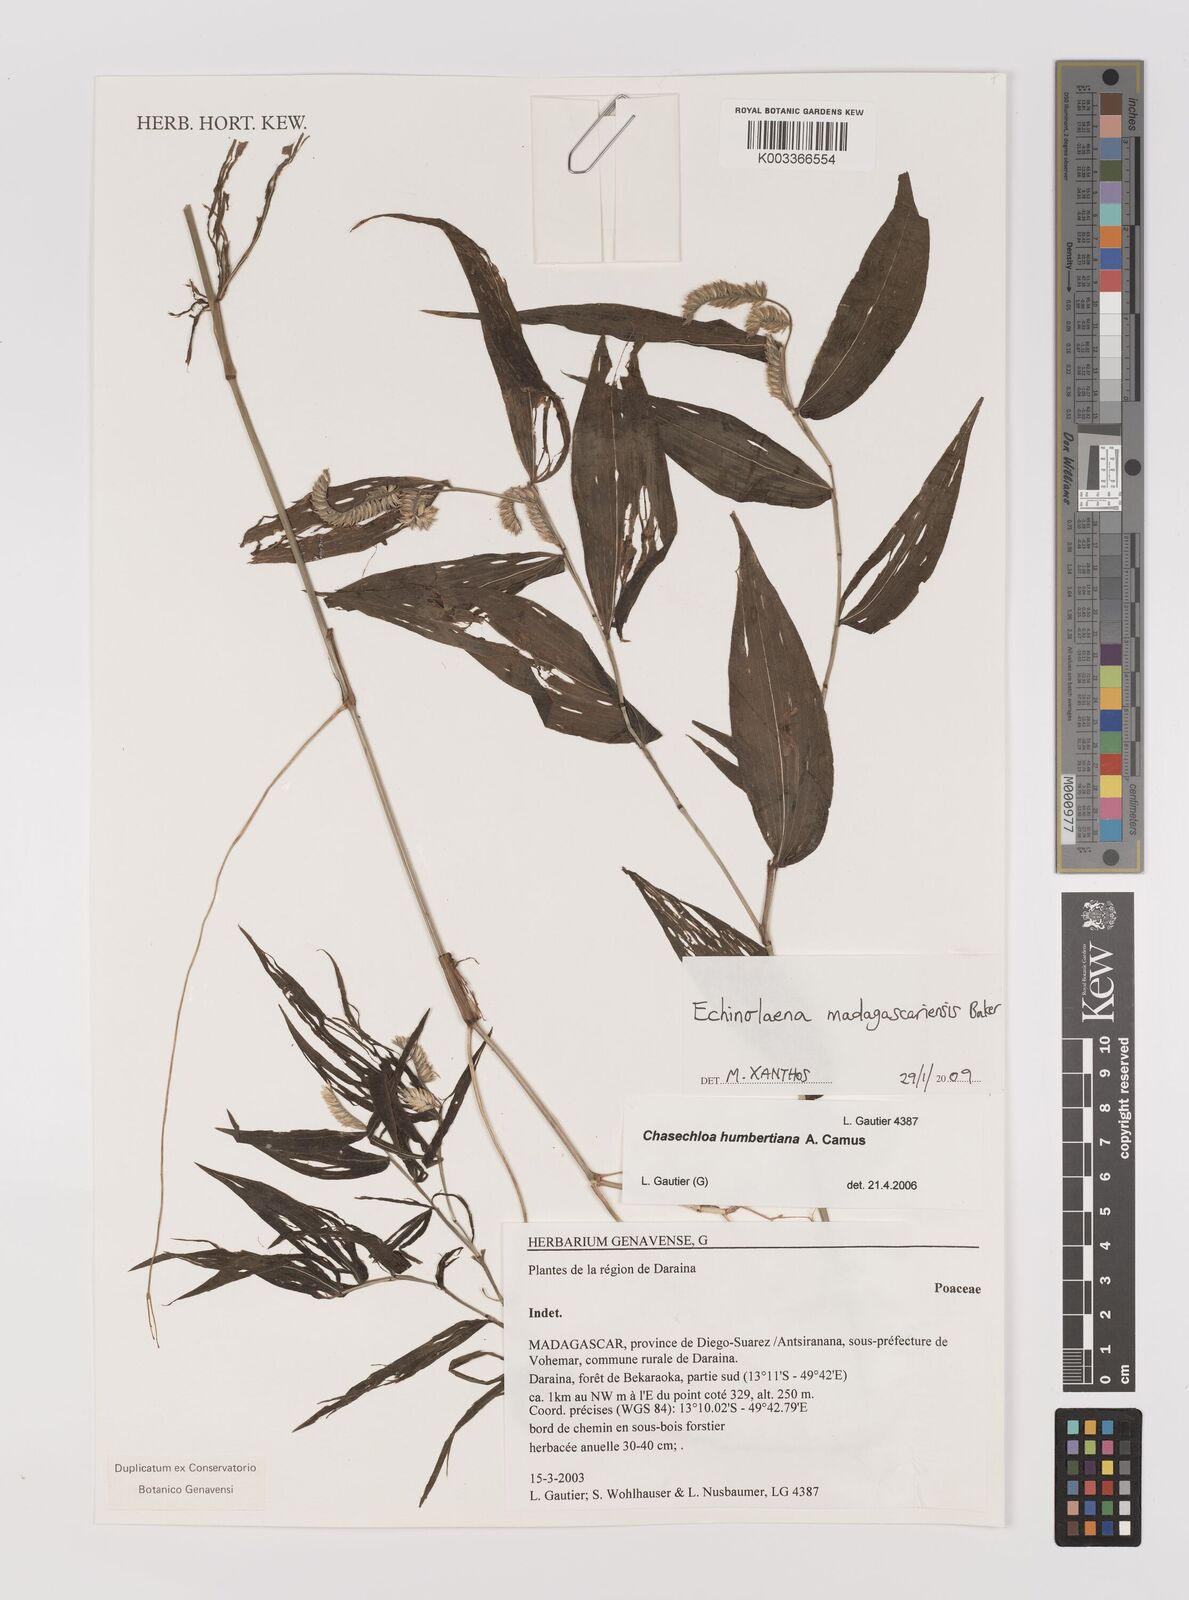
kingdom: Plantae
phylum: Tracheophyta
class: Liliopsida
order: Poales
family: Poaceae
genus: Chasechloa
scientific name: Chasechloa madagascariensis
